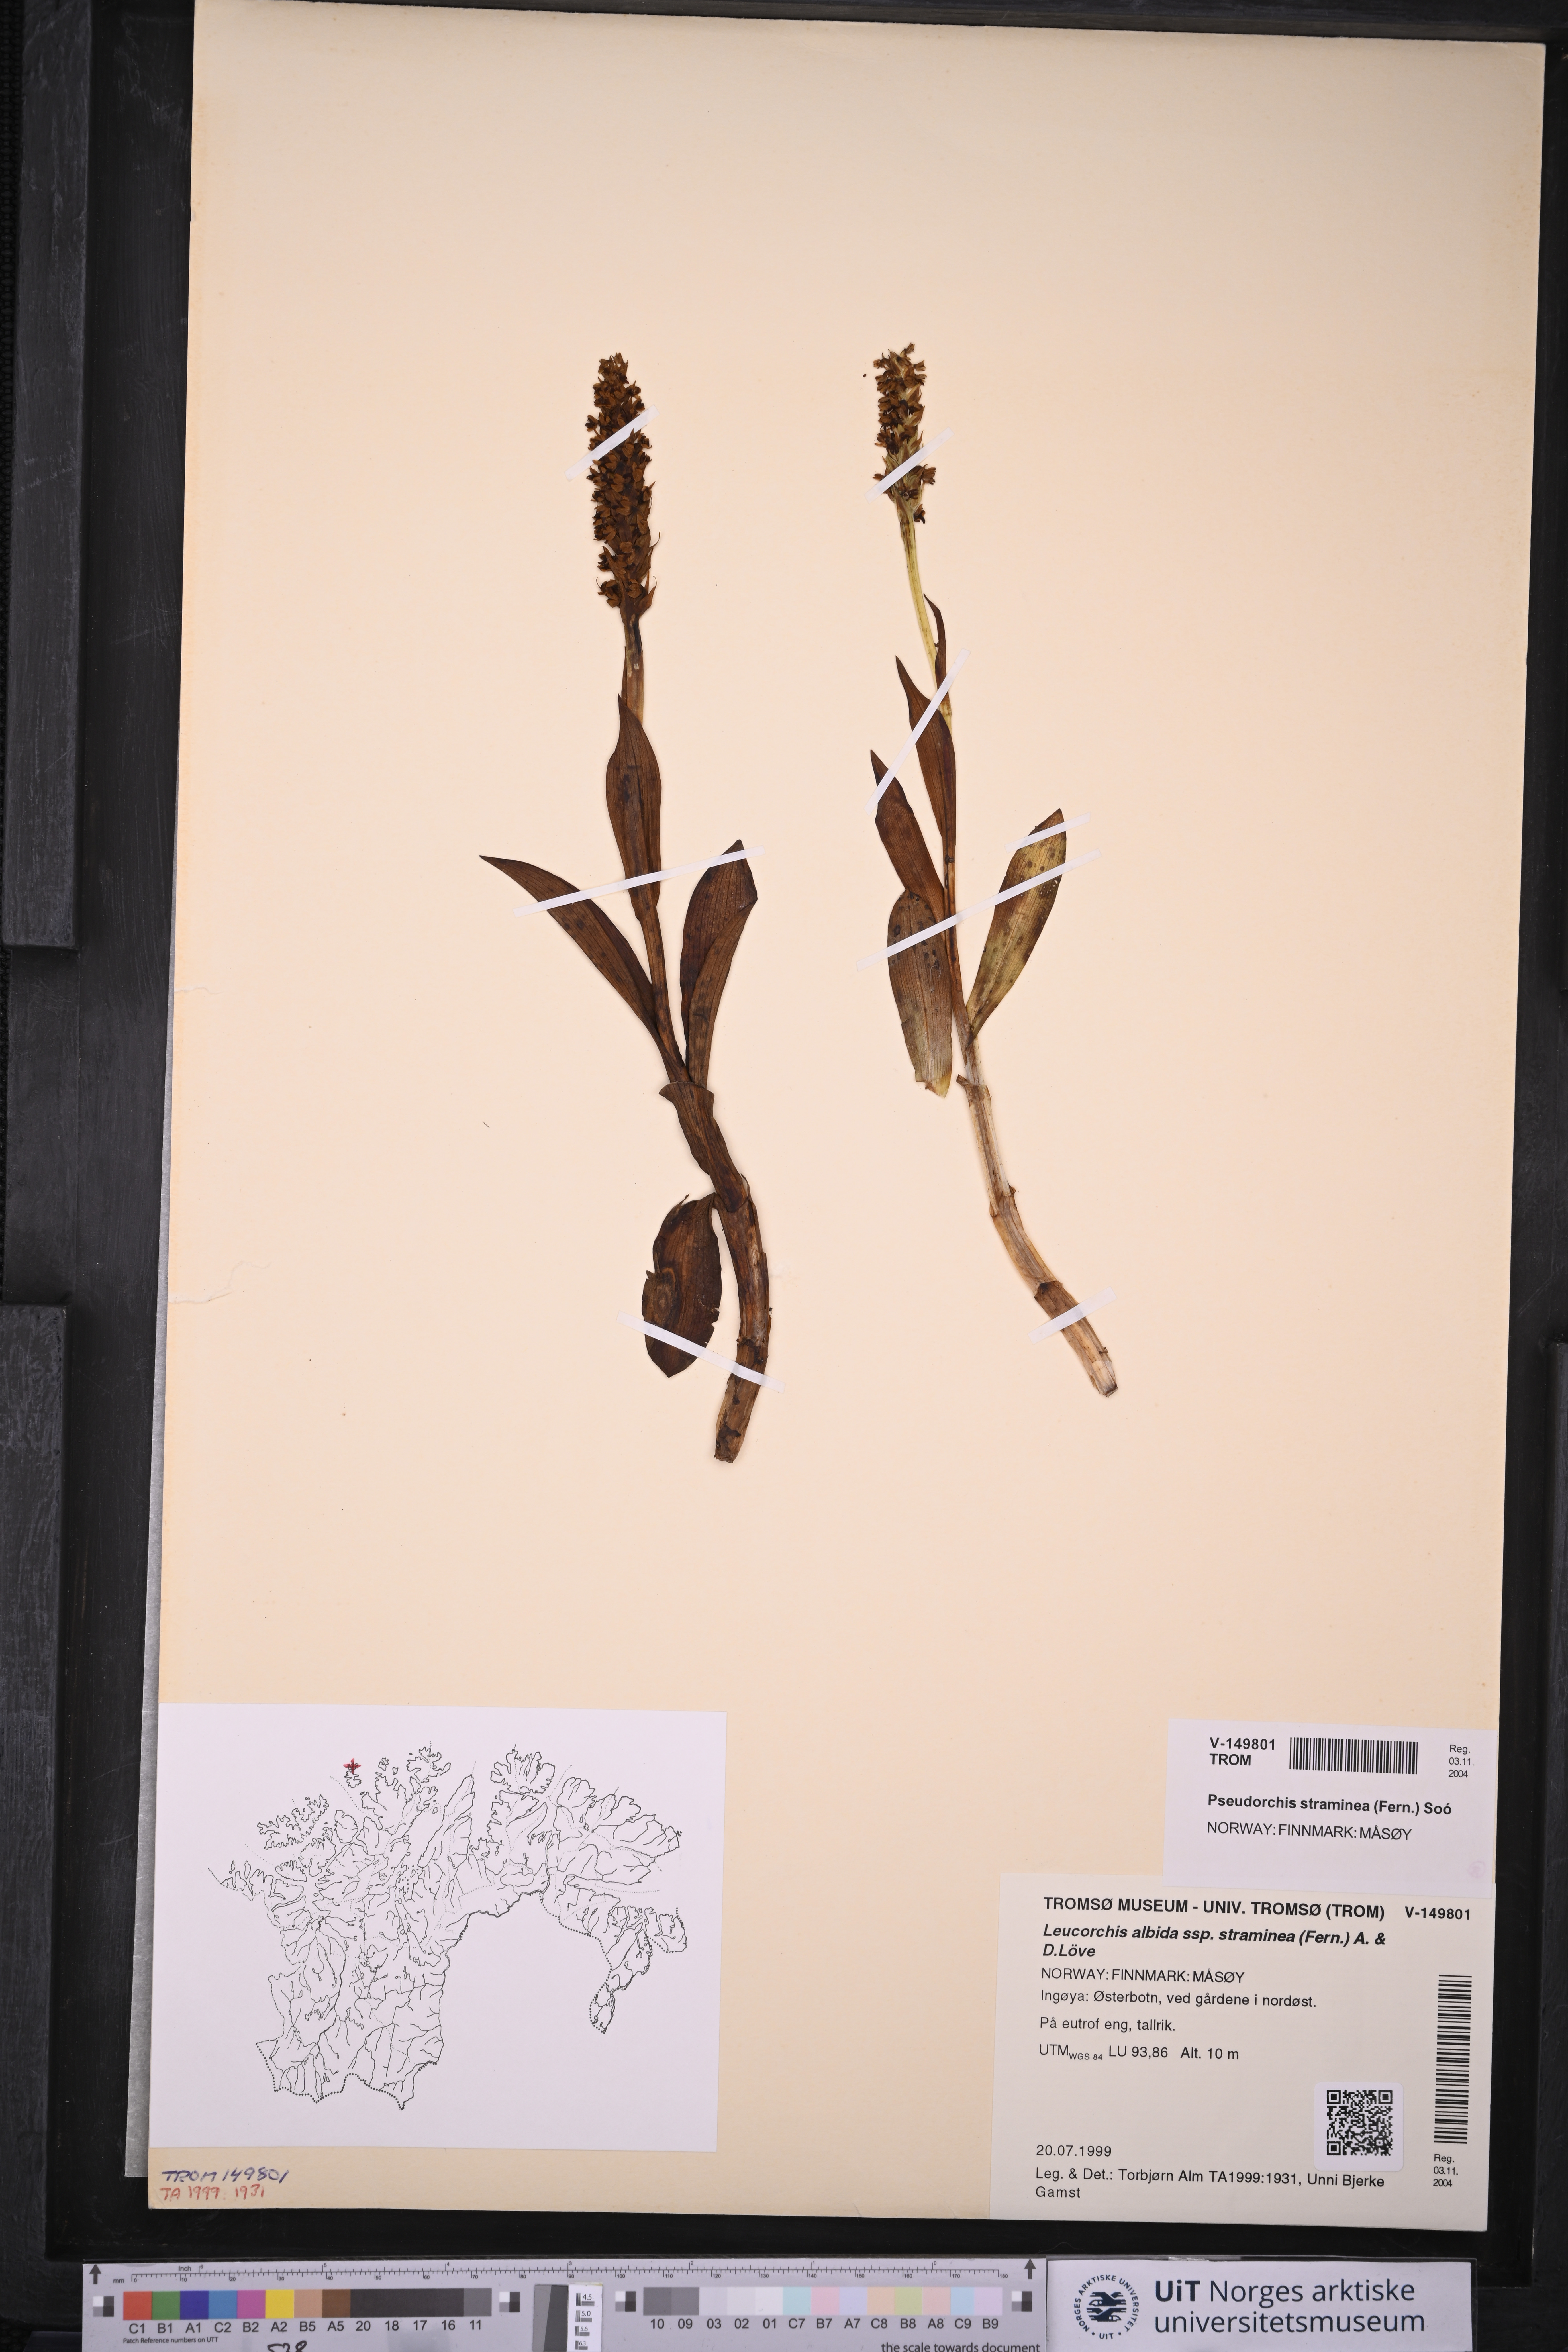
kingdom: Plantae
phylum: Tracheophyta
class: Liliopsida
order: Asparagales
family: Orchidaceae
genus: Pseudorchis
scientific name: Pseudorchis straminea
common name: Vanilla-scented bog orchid
